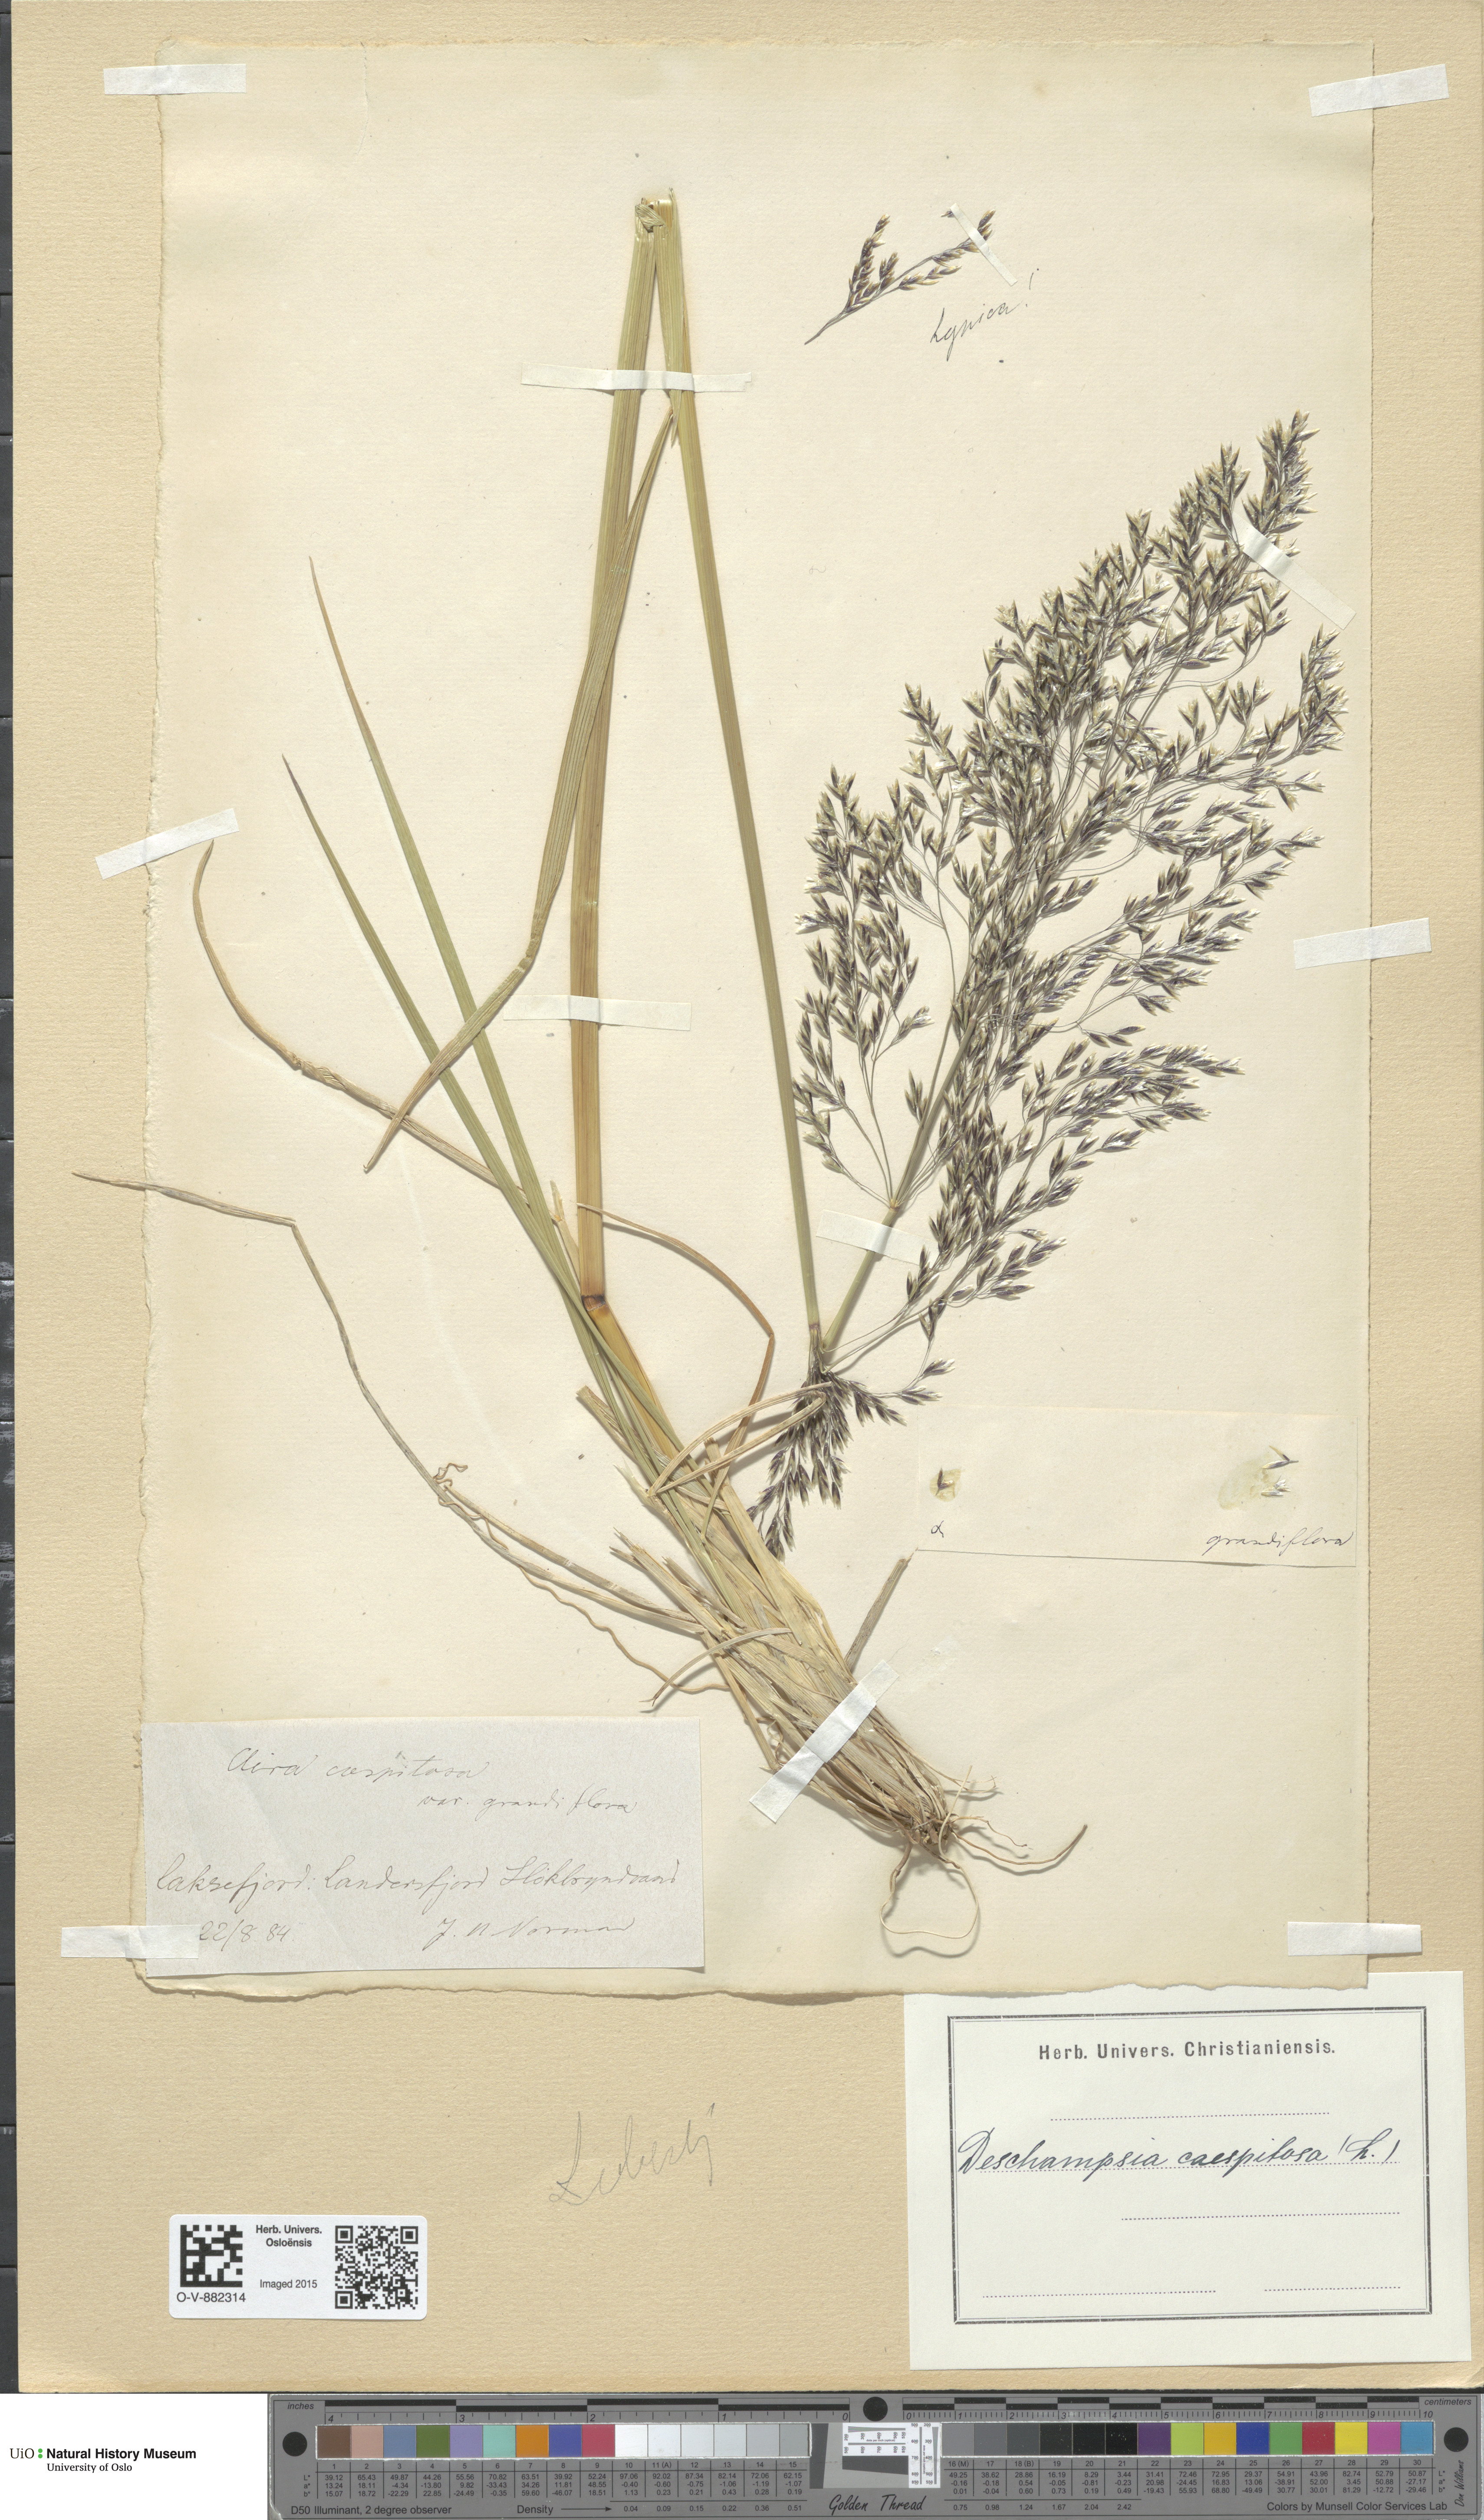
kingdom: Plantae
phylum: Tracheophyta
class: Liliopsida
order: Poales
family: Poaceae
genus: Deschampsia
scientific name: Deschampsia cespitosa
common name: Tufted hair-grass
